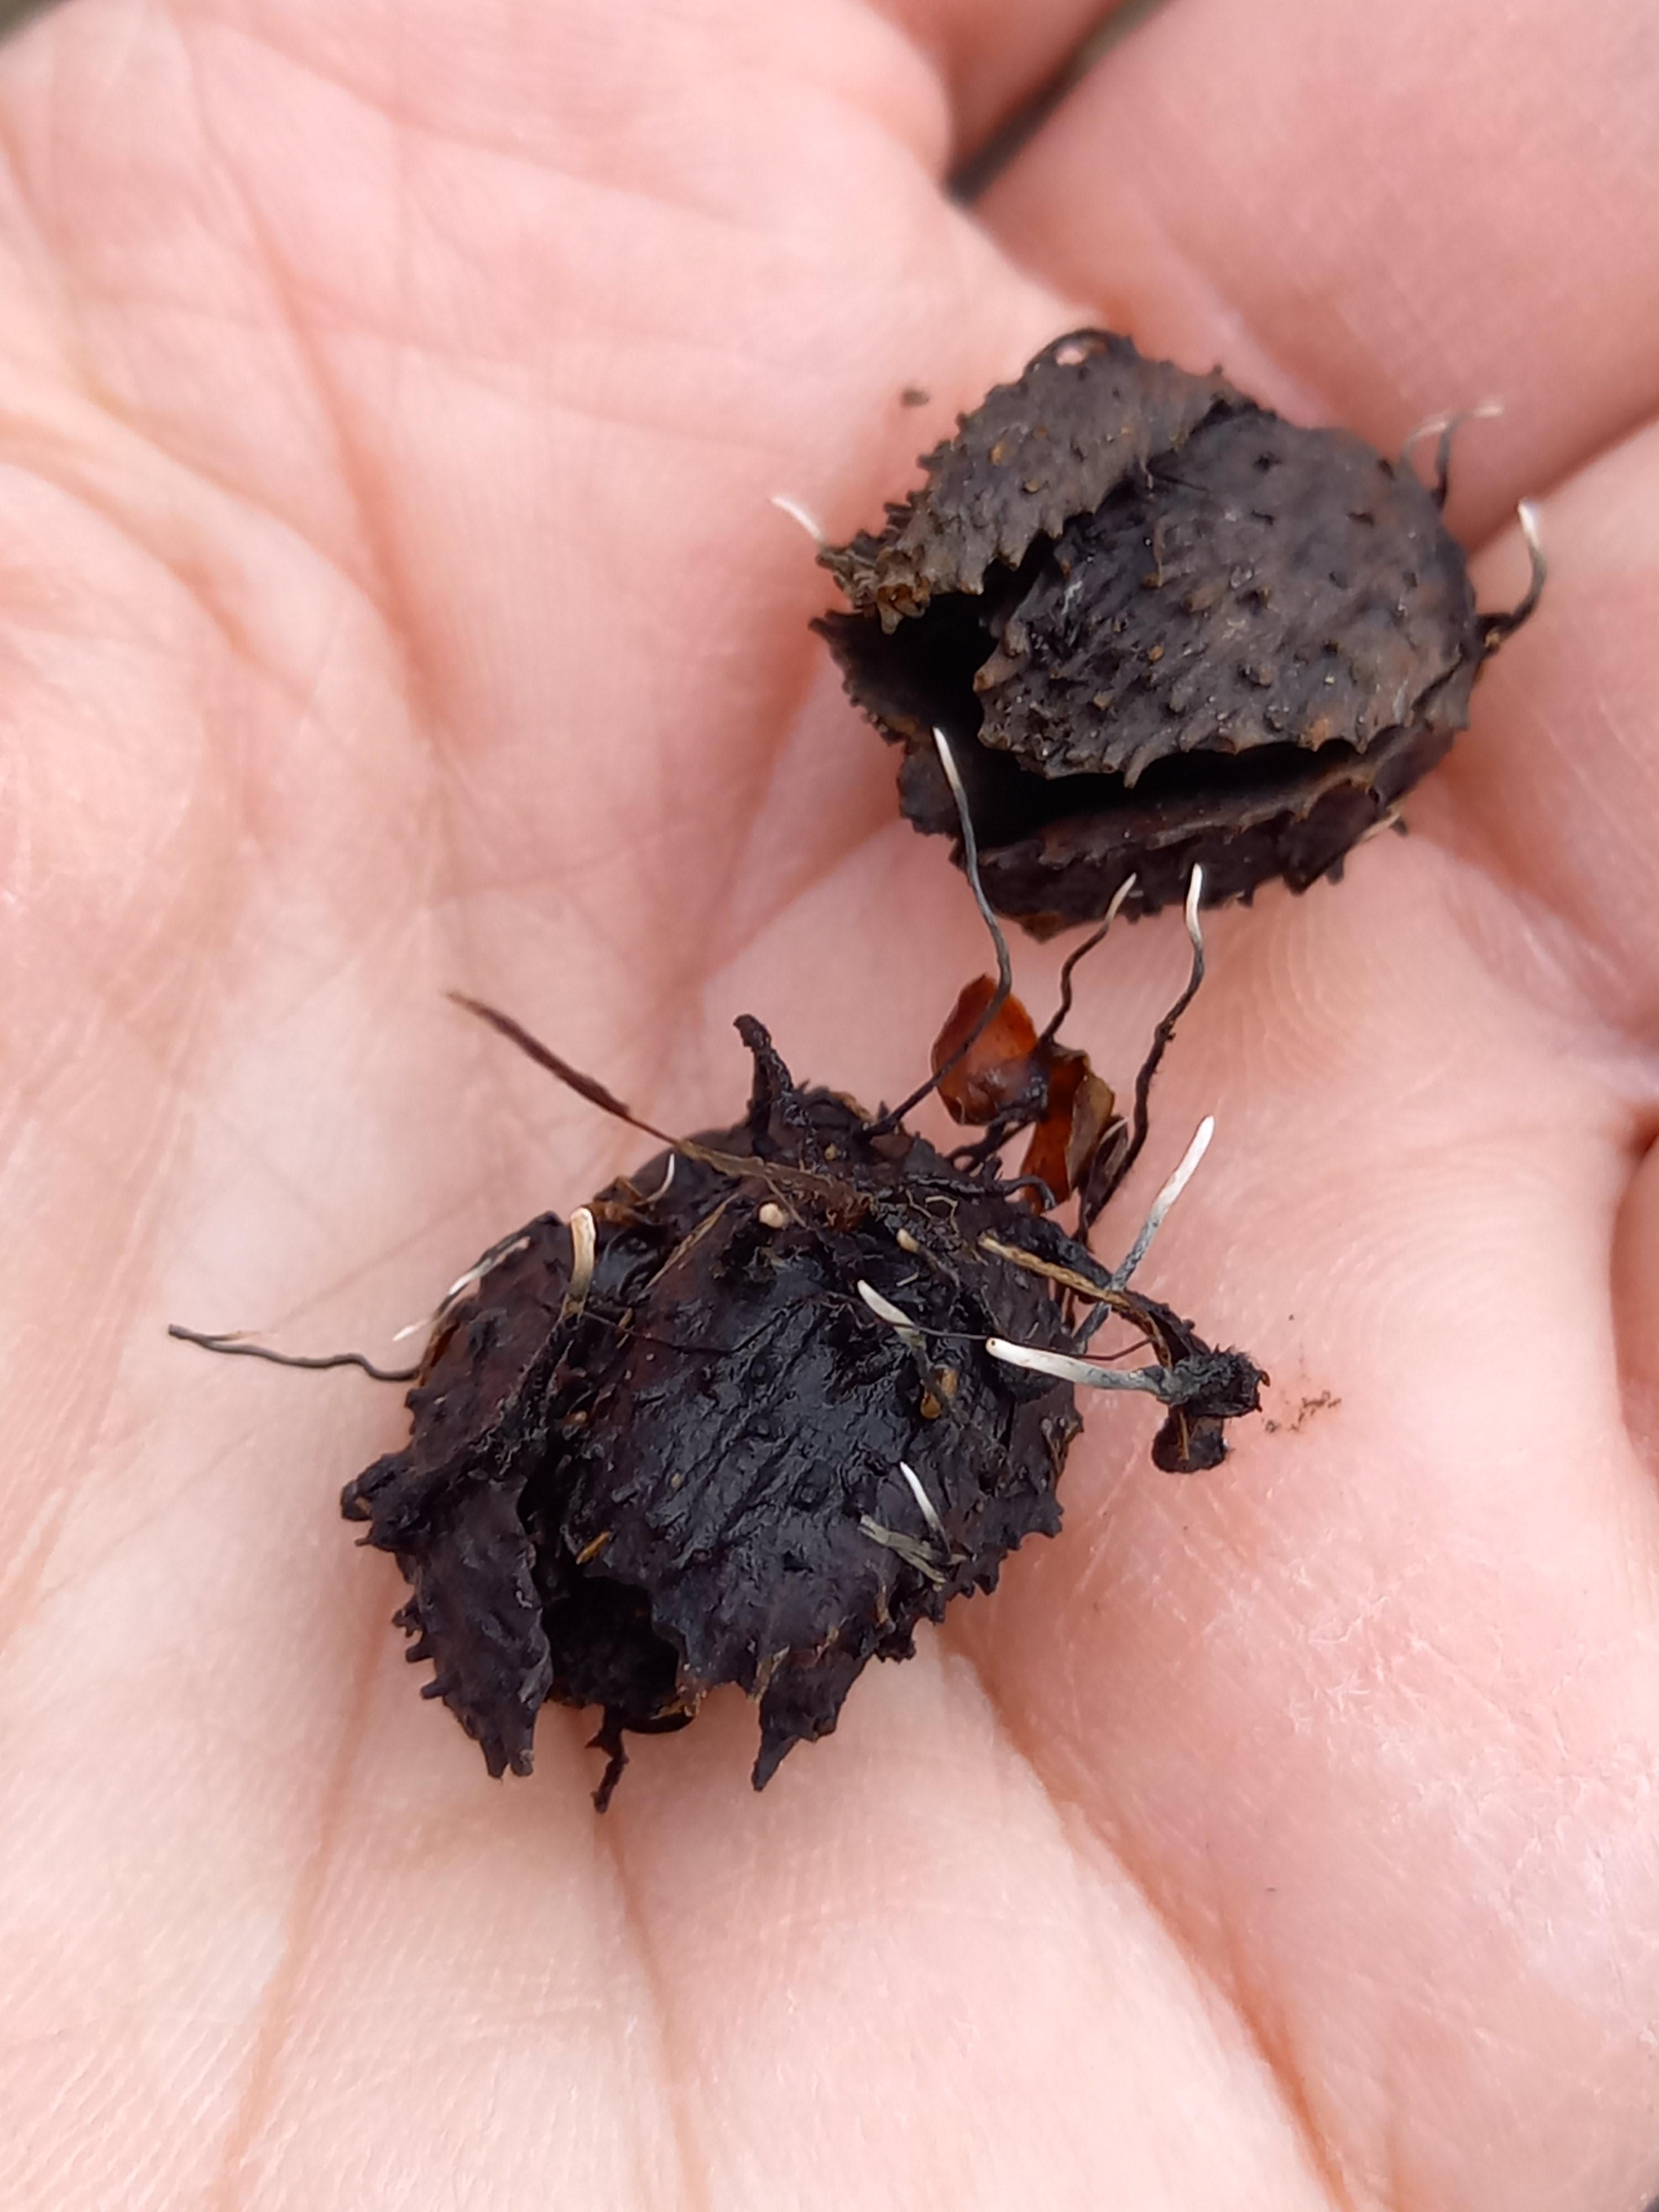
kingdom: Fungi
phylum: Ascomycota
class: Sordariomycetes
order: Xylariales
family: Xylariaceae
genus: Xylaria
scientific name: Xylaria carpophila
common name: bogskål-stødsvamp
